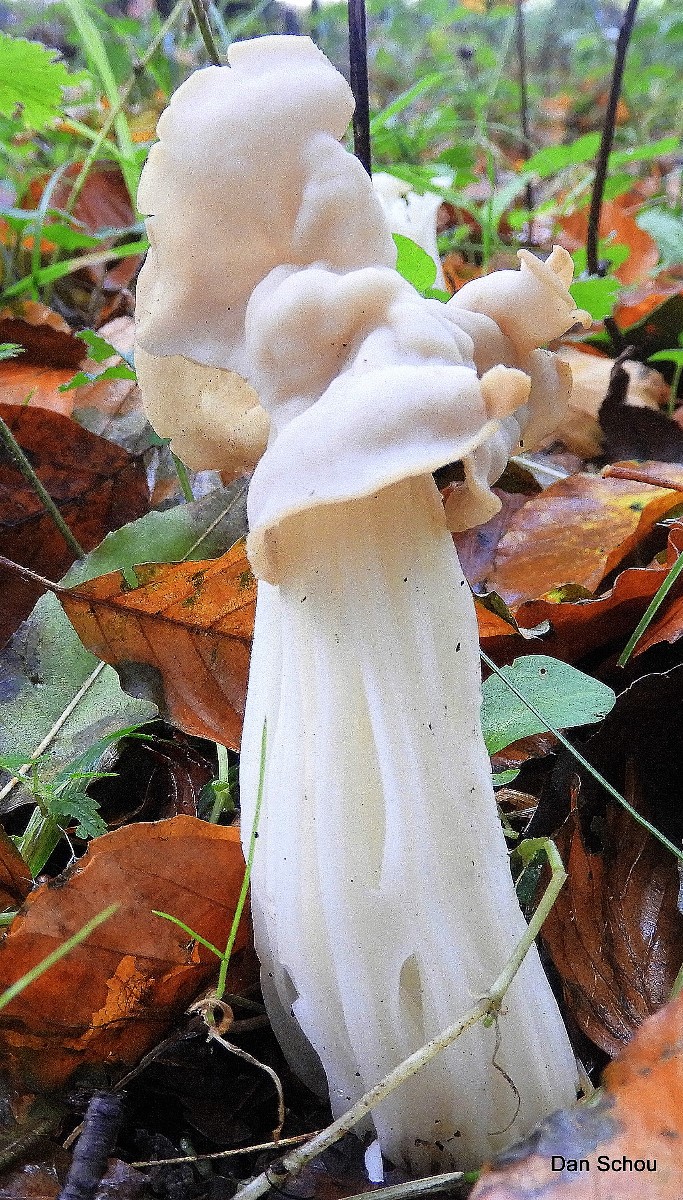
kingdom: Fungi
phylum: Ascomycota
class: Pezizomycetes
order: Pezizales
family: Helvellaceae
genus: Helvella
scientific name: Helvella crispa
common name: kruset foldhat
